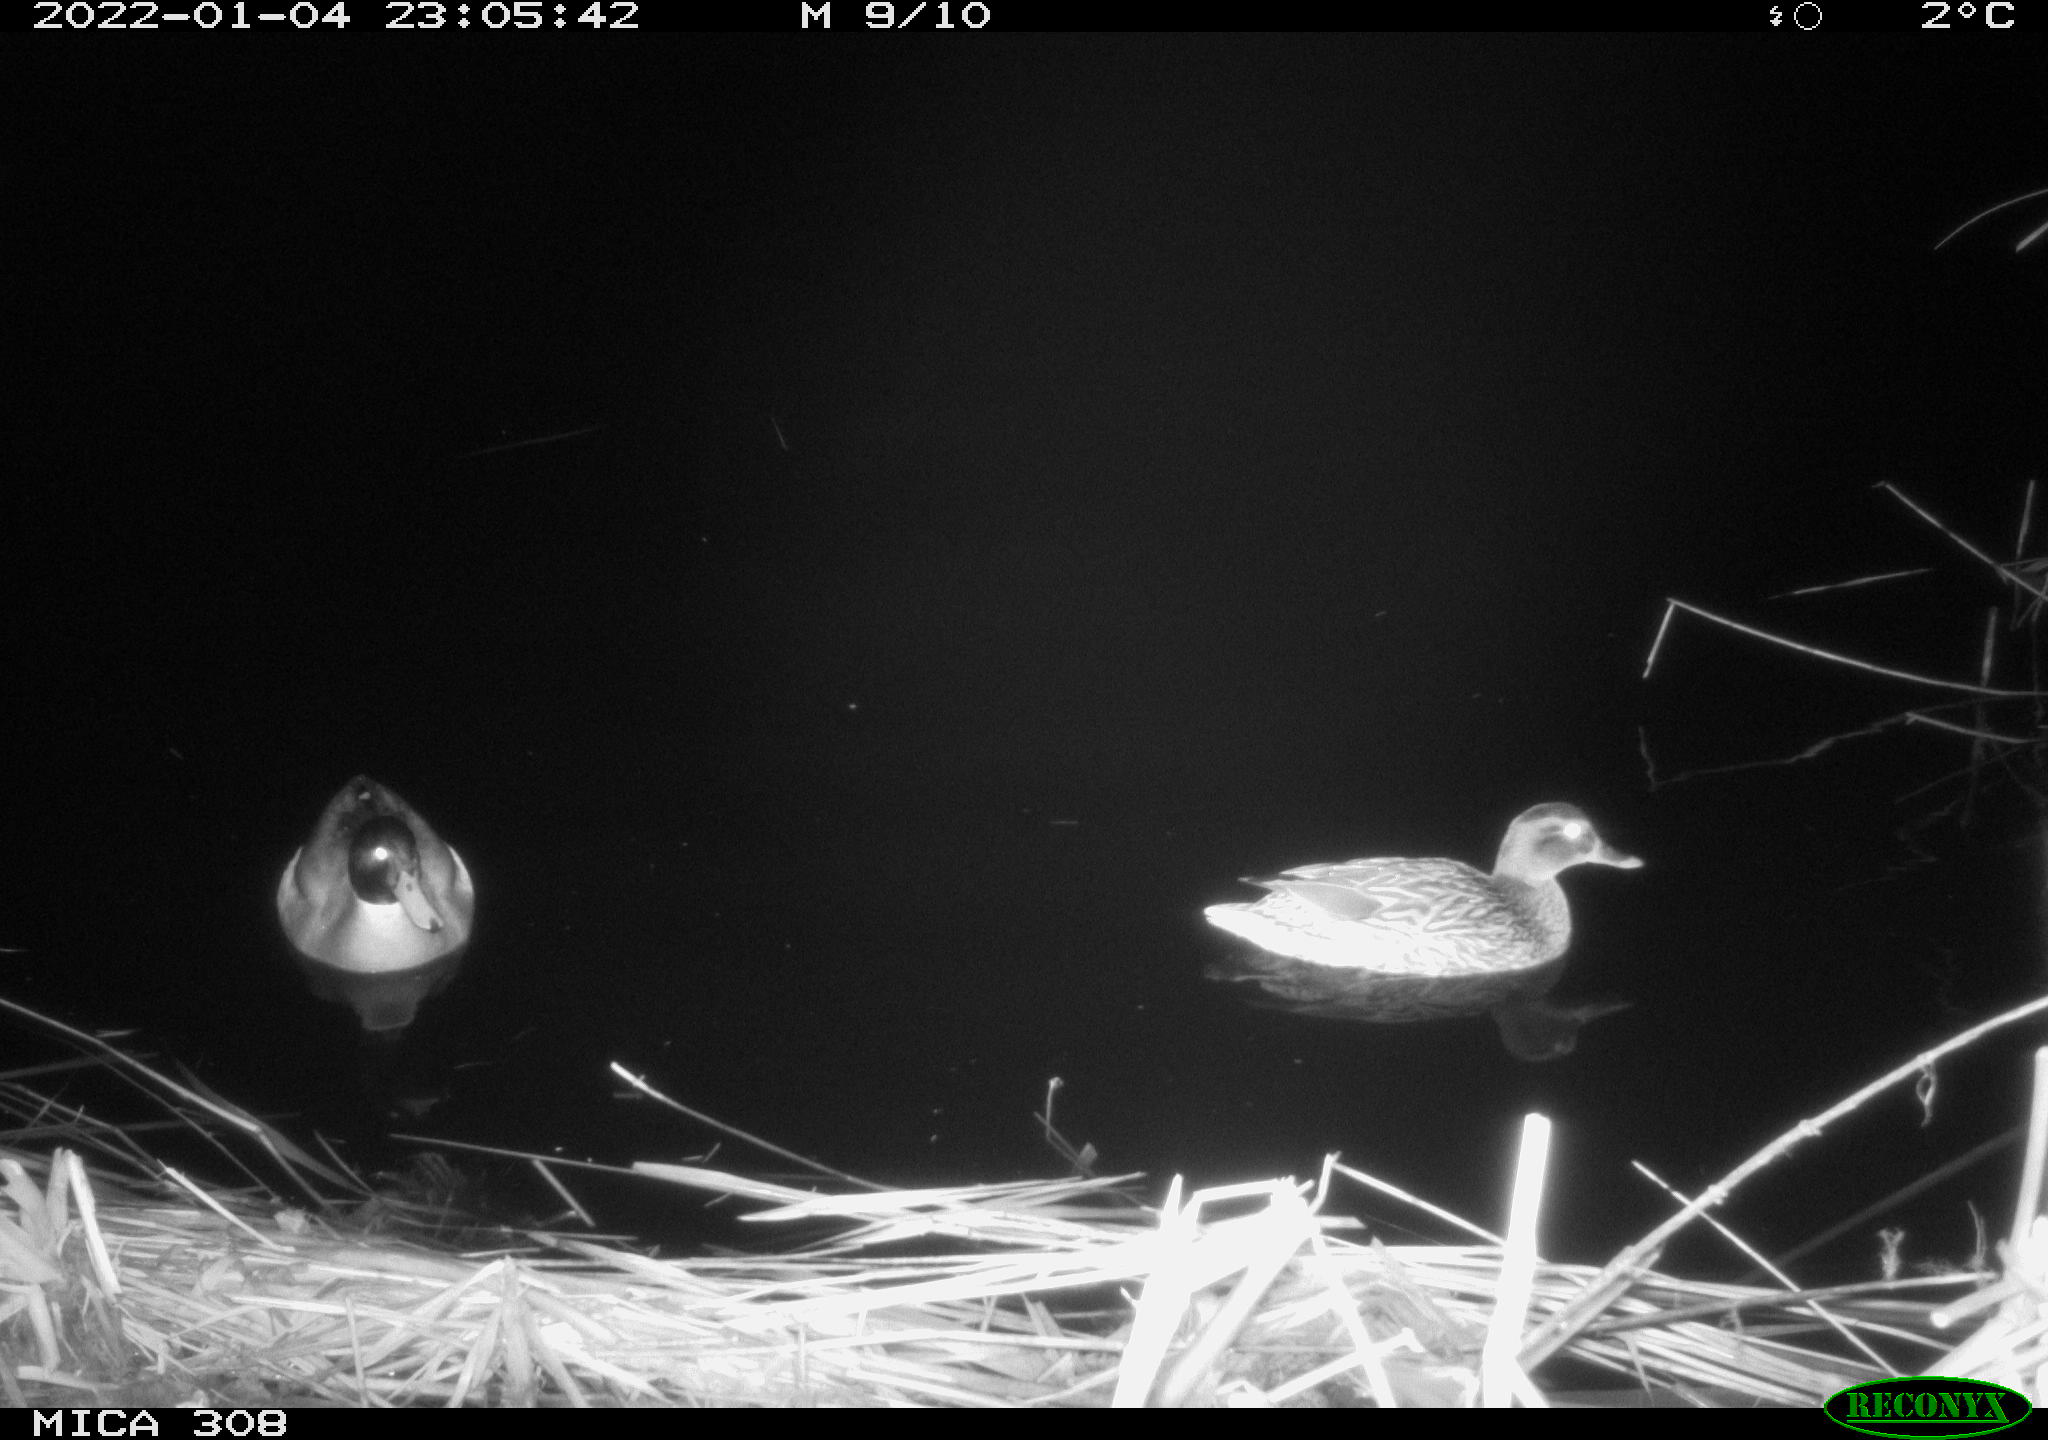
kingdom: Animalia
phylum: Chordata
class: Aves
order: Anseriformes
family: Anatidae
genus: Anas
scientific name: Anas platyrhynchos
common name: Mallard
